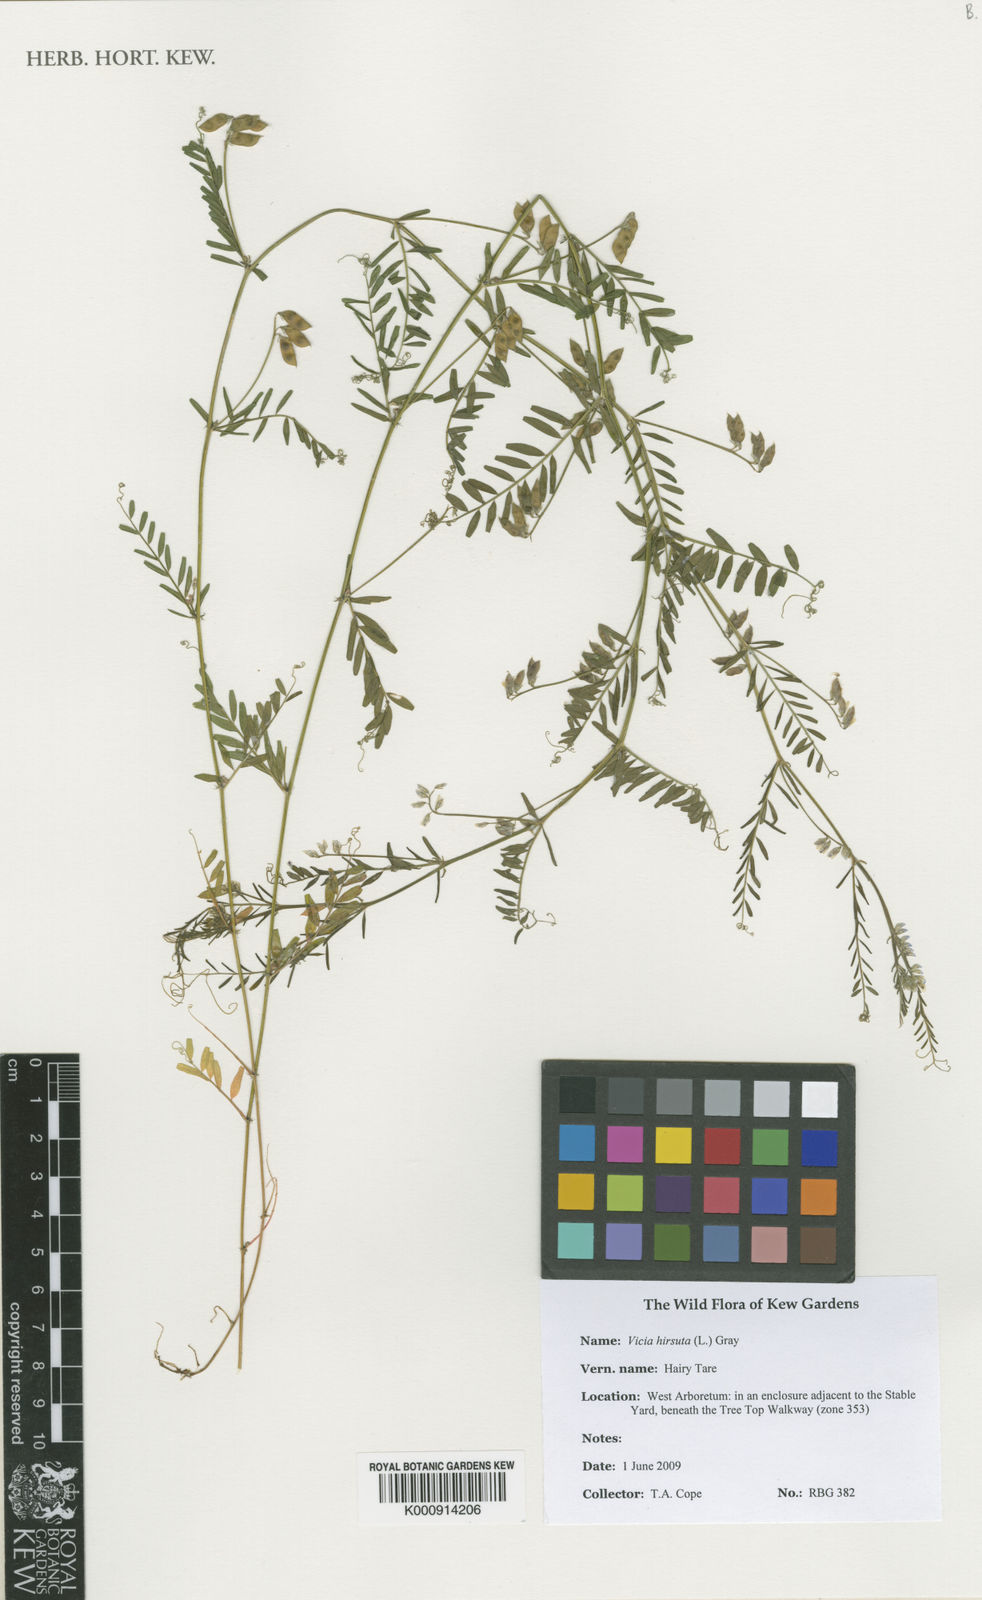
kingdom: Plantae
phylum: Tracheophyta
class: Magnoliopsida
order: Fabales
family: Fabaceae
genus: Vicia
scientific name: Vicia hirsuta
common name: Tiny vetch
